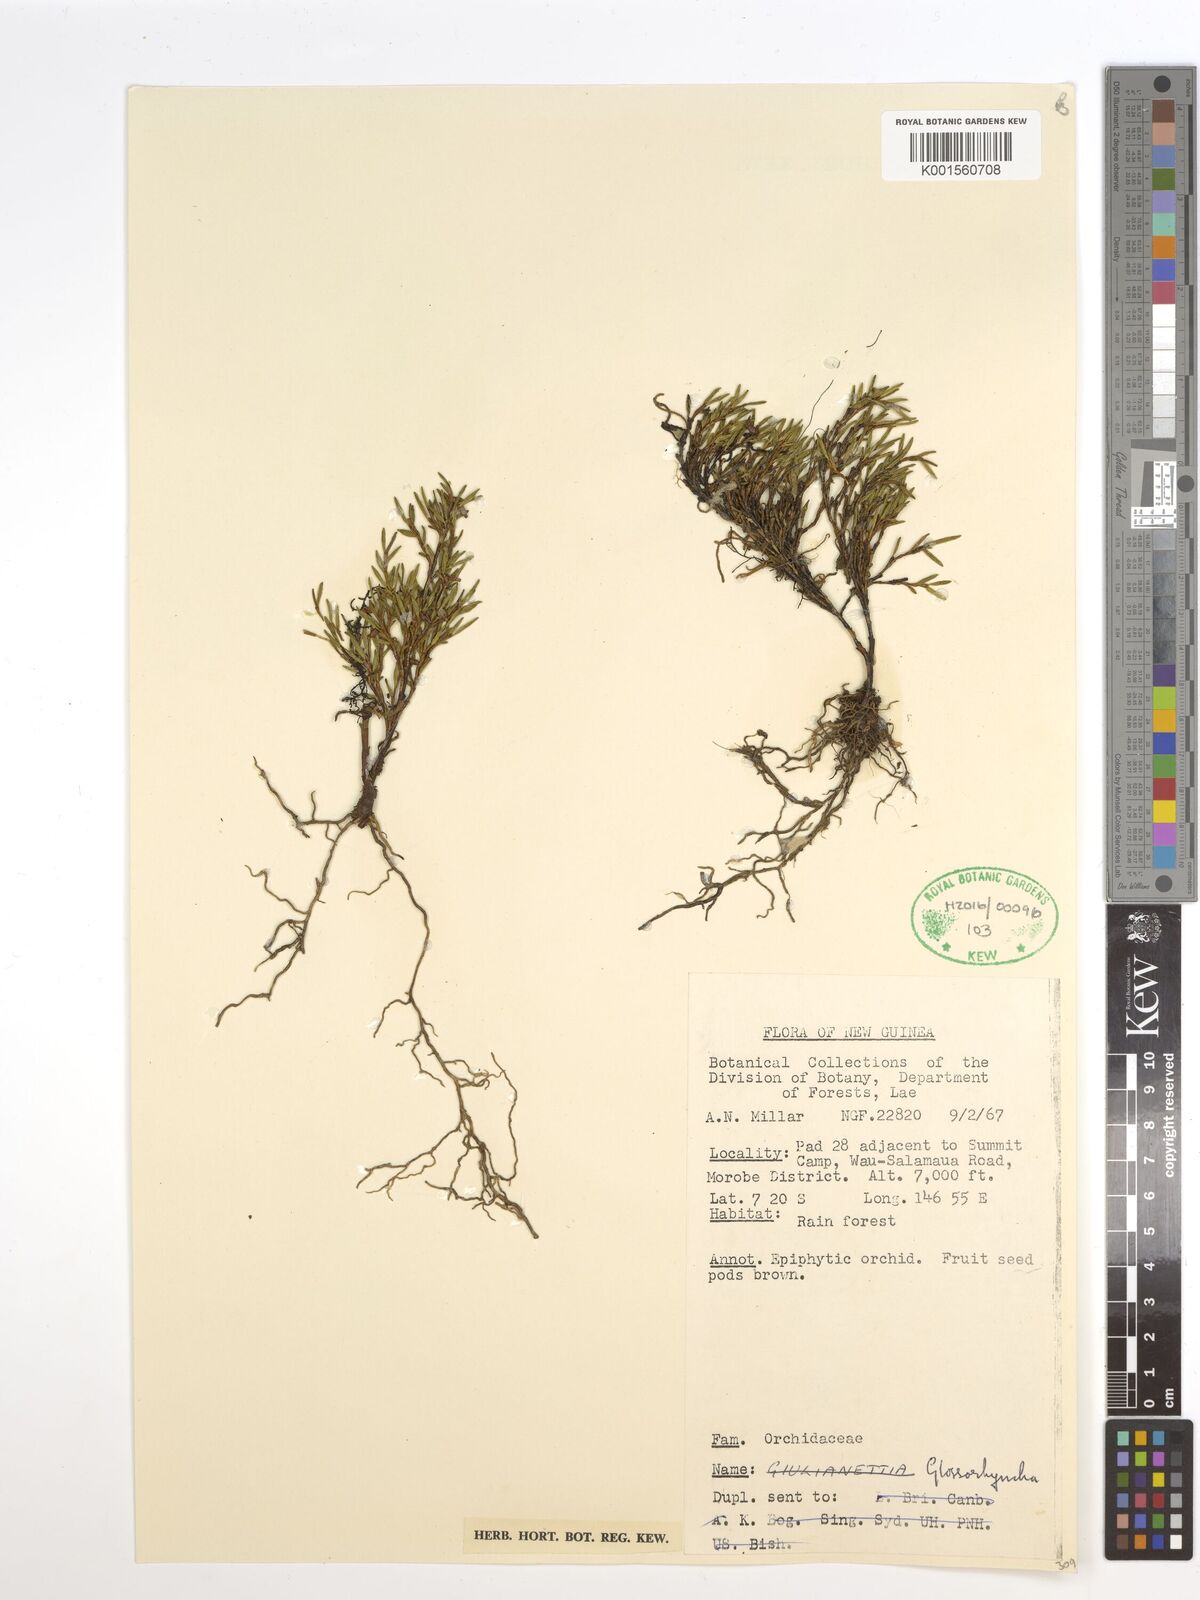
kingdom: Plantae
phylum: Tracheophyta
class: Liliopsida
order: Asparagales
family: Orchidaceae
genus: Glomera
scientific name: Glomera
